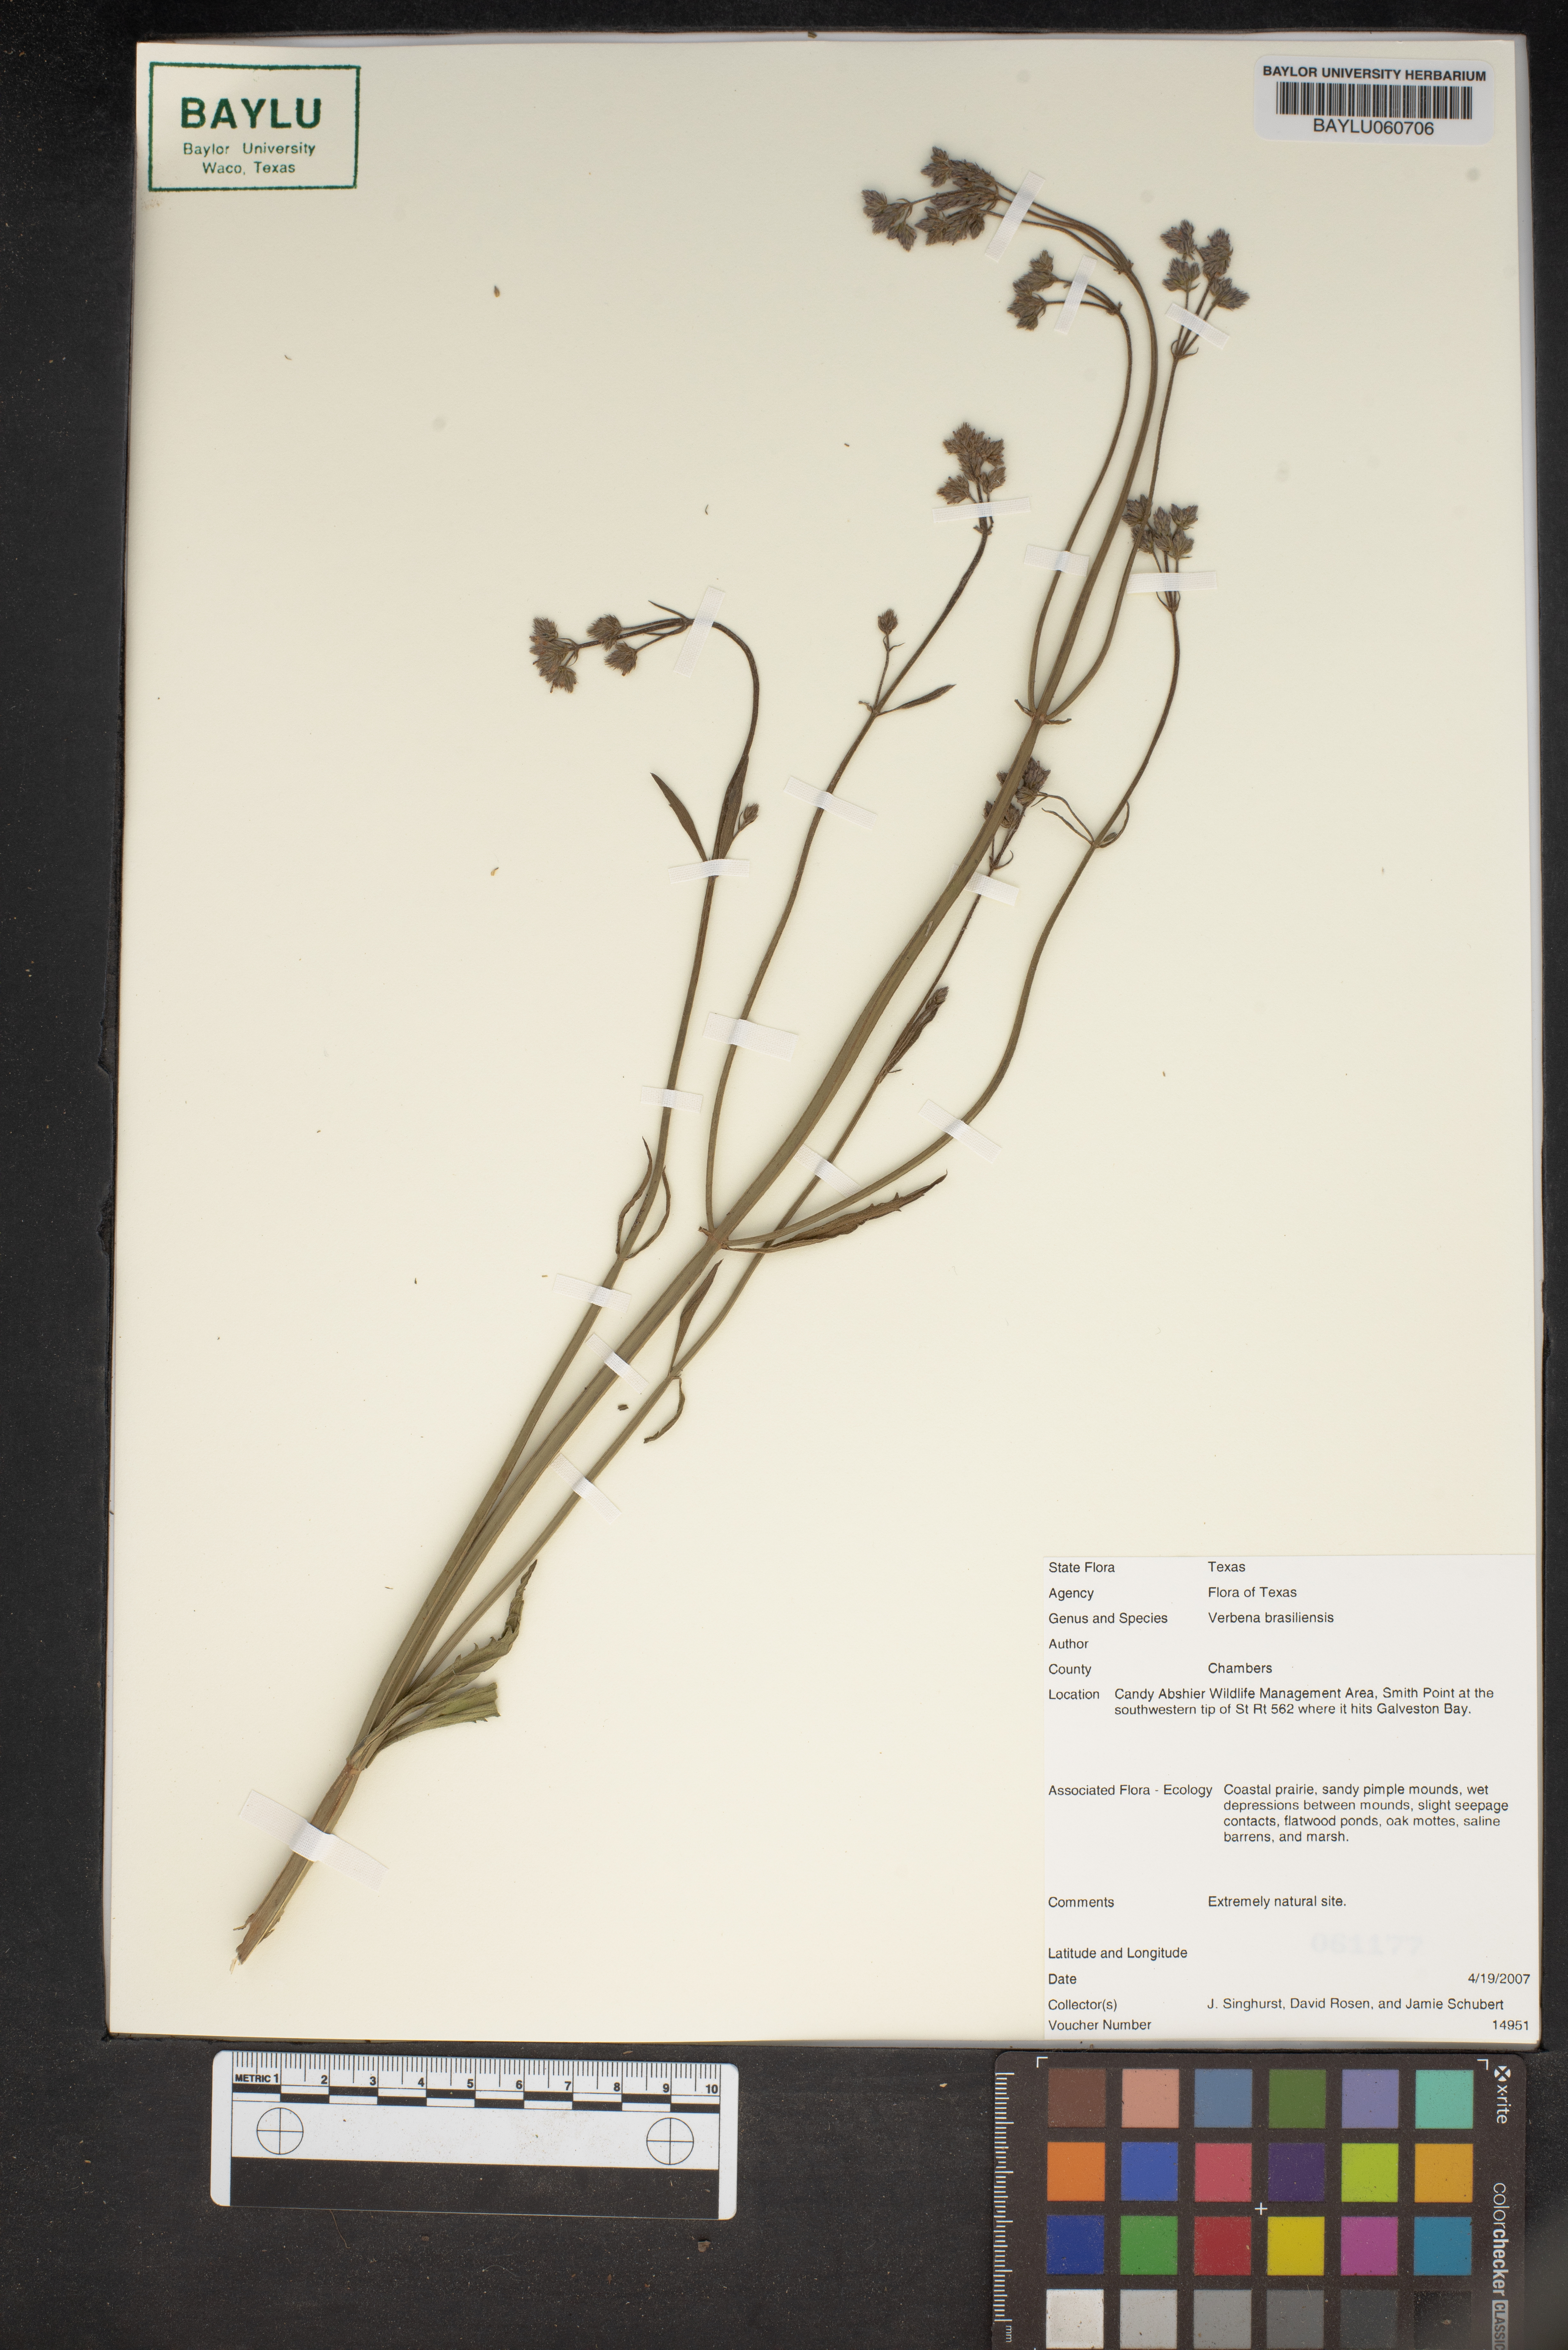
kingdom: Plantae
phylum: Tracheophyta
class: Magnoliopsida
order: Lamiales
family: Verbenaceae
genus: Verbena
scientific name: Verbena brasiliensis
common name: Brazilian vervain
